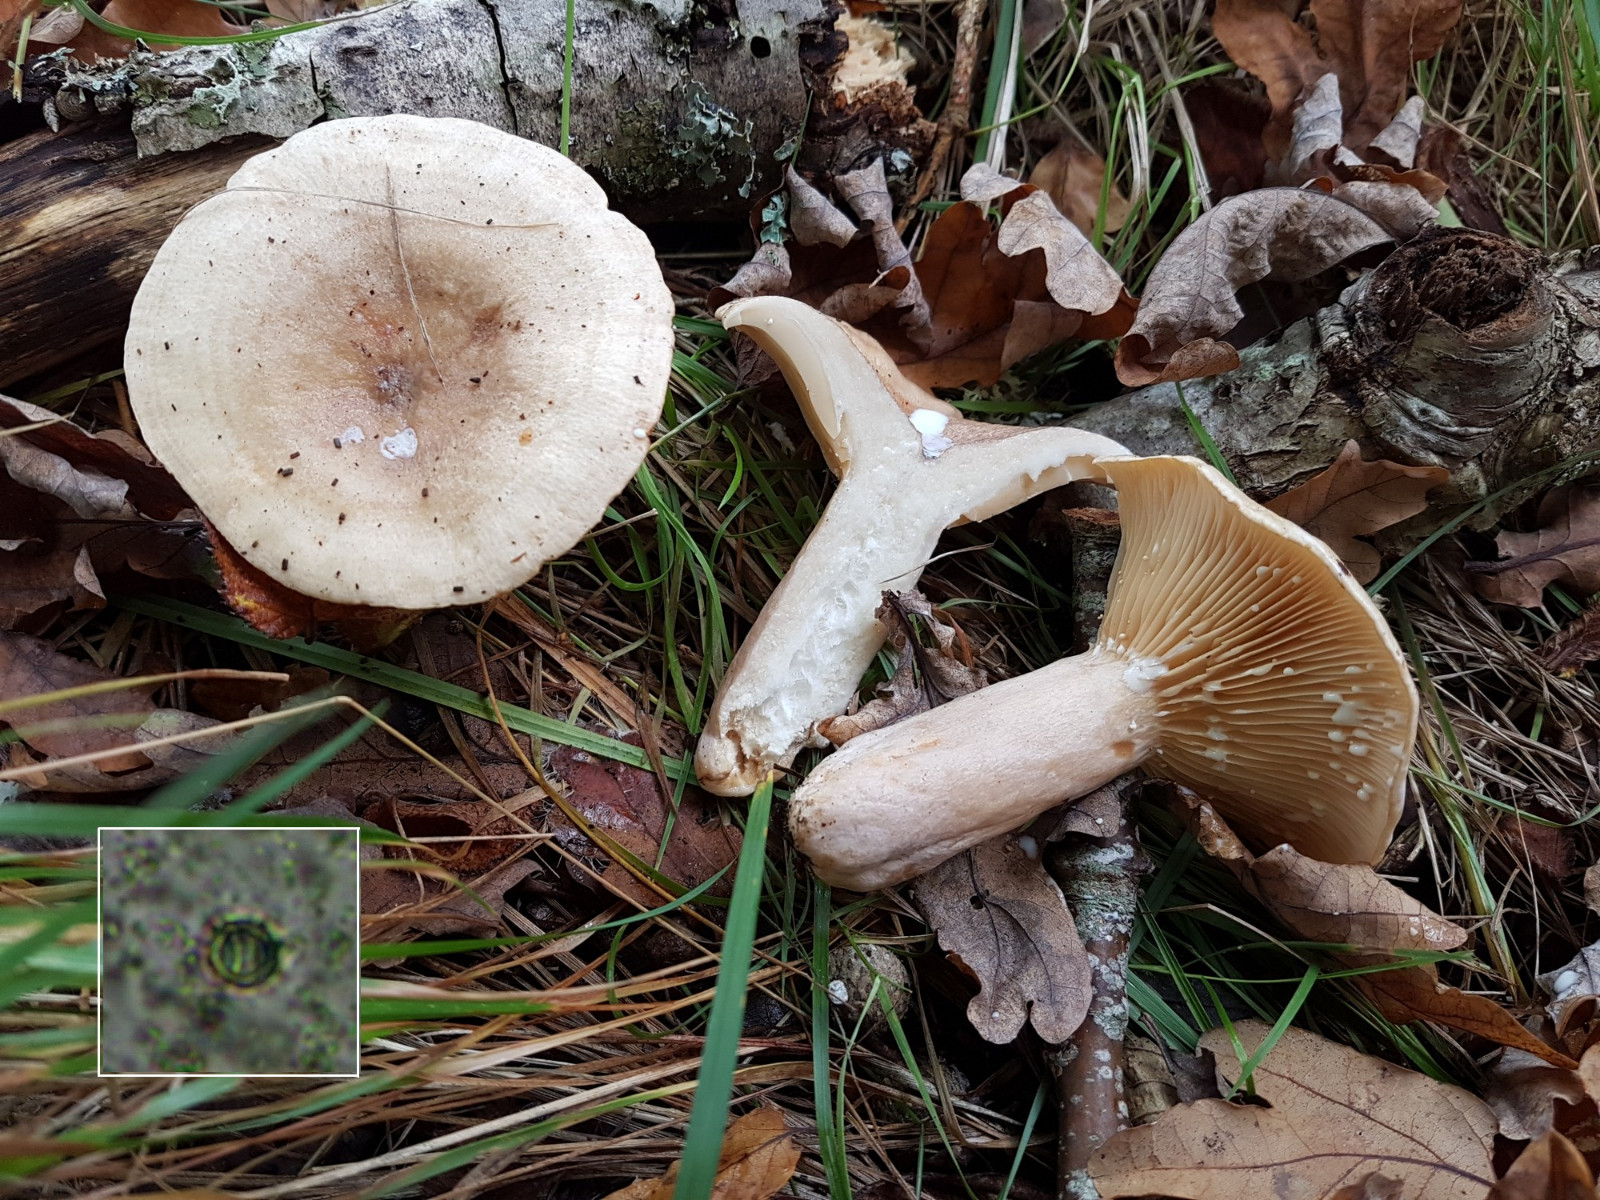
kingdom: Fungi
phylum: Basidiomycota
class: Agaricomycetes
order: Russulales
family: Russulaceae
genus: Lactarius
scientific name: Lactarius pyrogalus
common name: hassel-mælkehat
